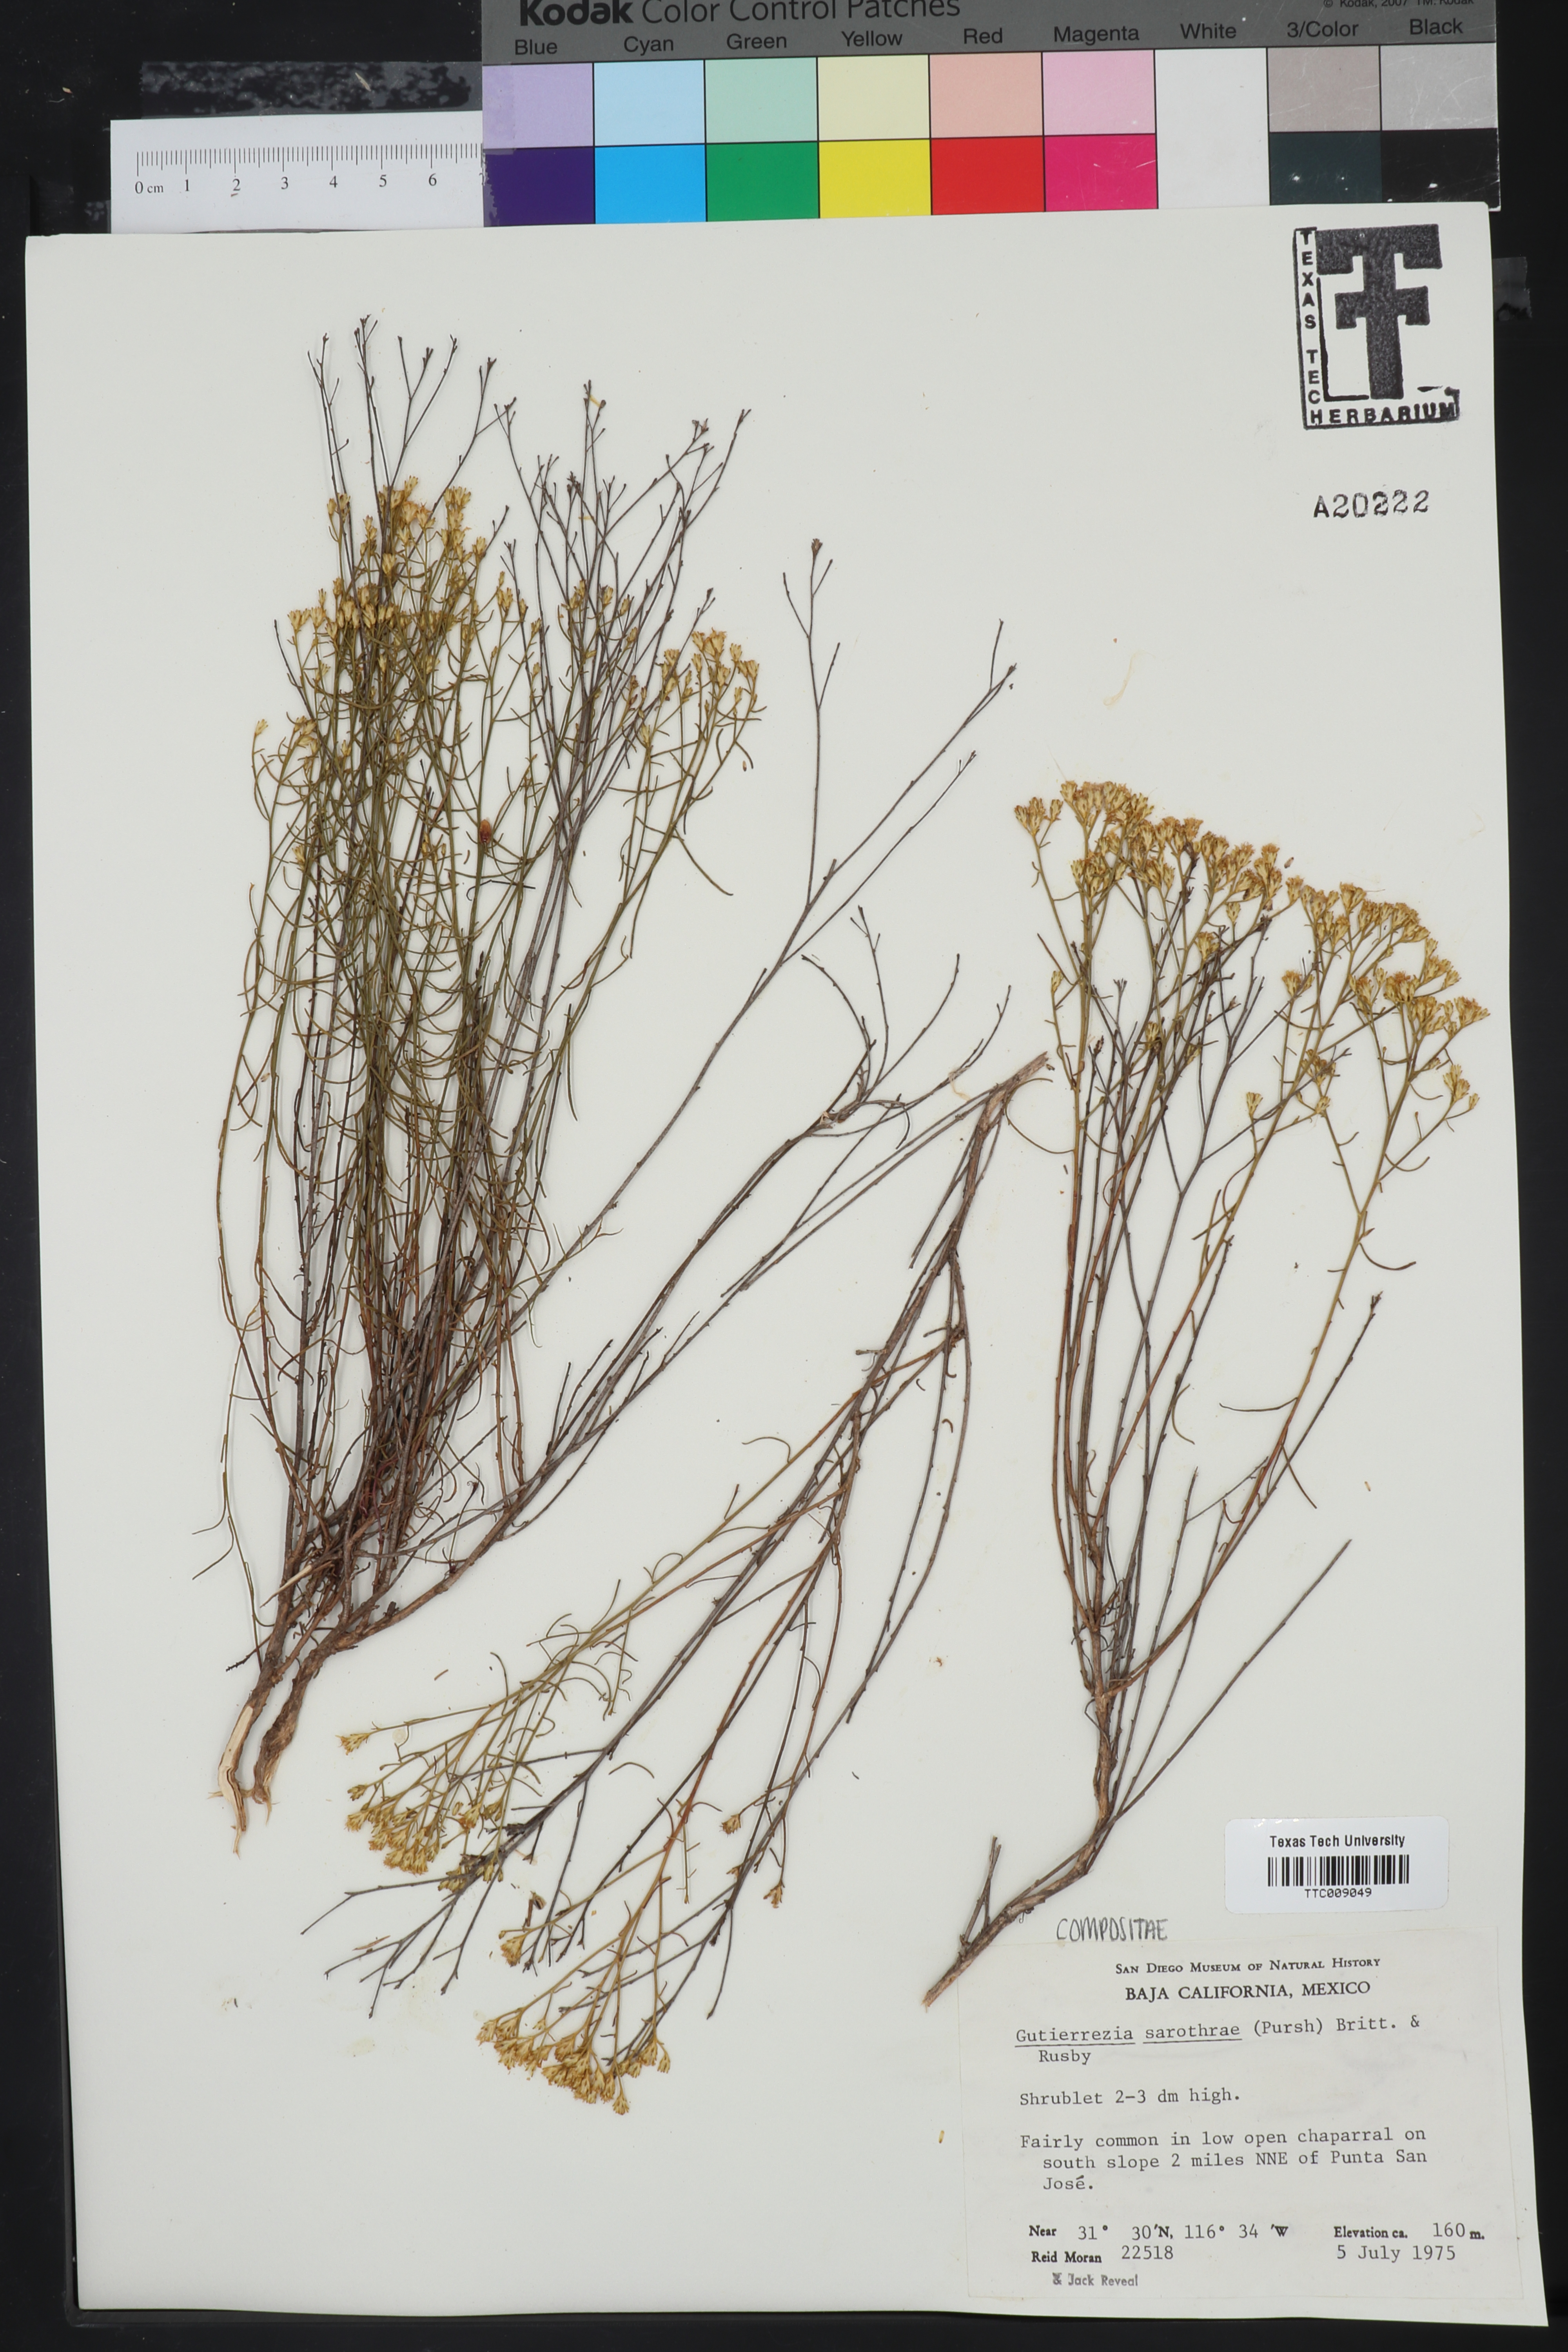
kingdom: Plantae
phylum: Tracheophyta
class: Magnoliopsida
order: Asterales
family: Asteraceae
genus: Gutierrezia
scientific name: Gutierrezia sarothrae
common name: Broom snakeweed
